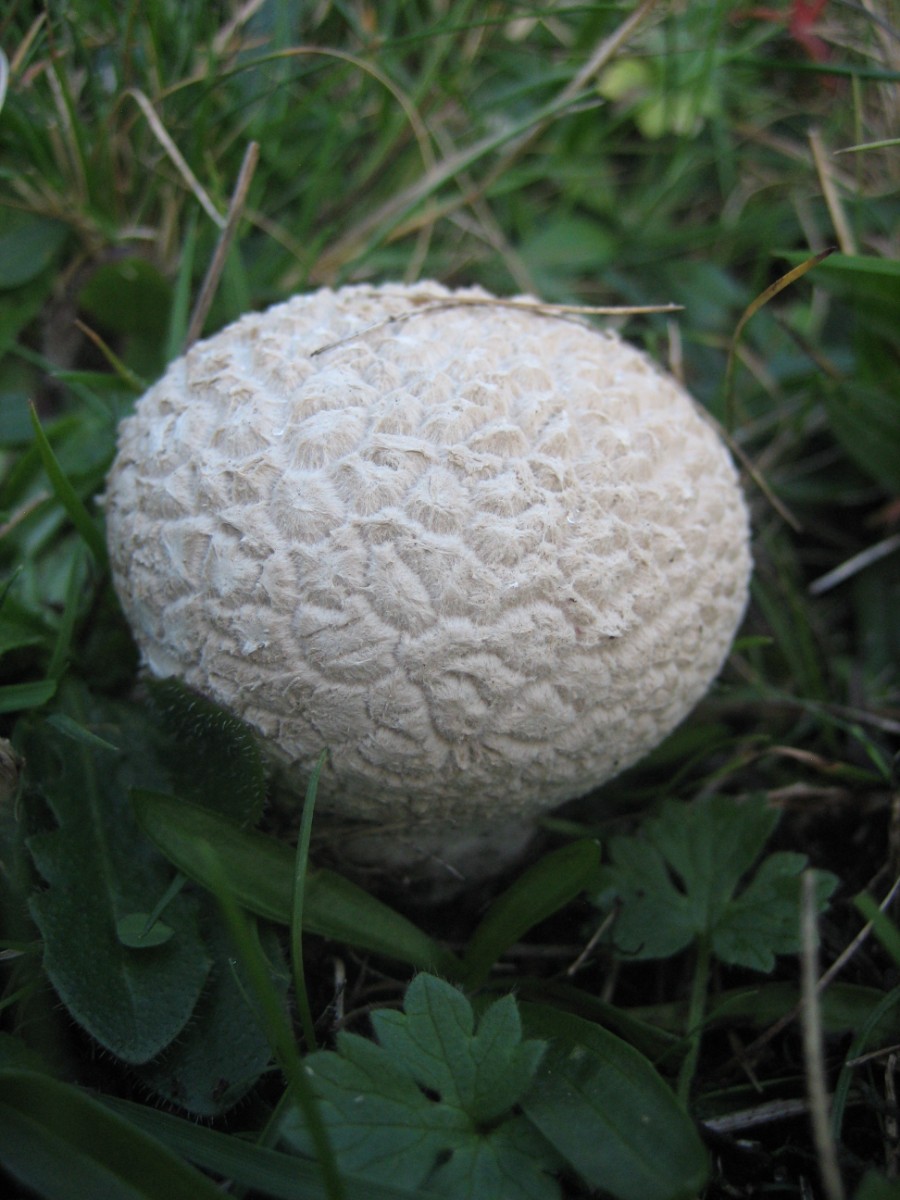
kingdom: Fungi
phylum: Basidiomycota
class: Agaricomycetes
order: Agaricales
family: Lycoperdaceae
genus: Bovistella
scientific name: Bovistella utriformis
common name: skællet støvbold
